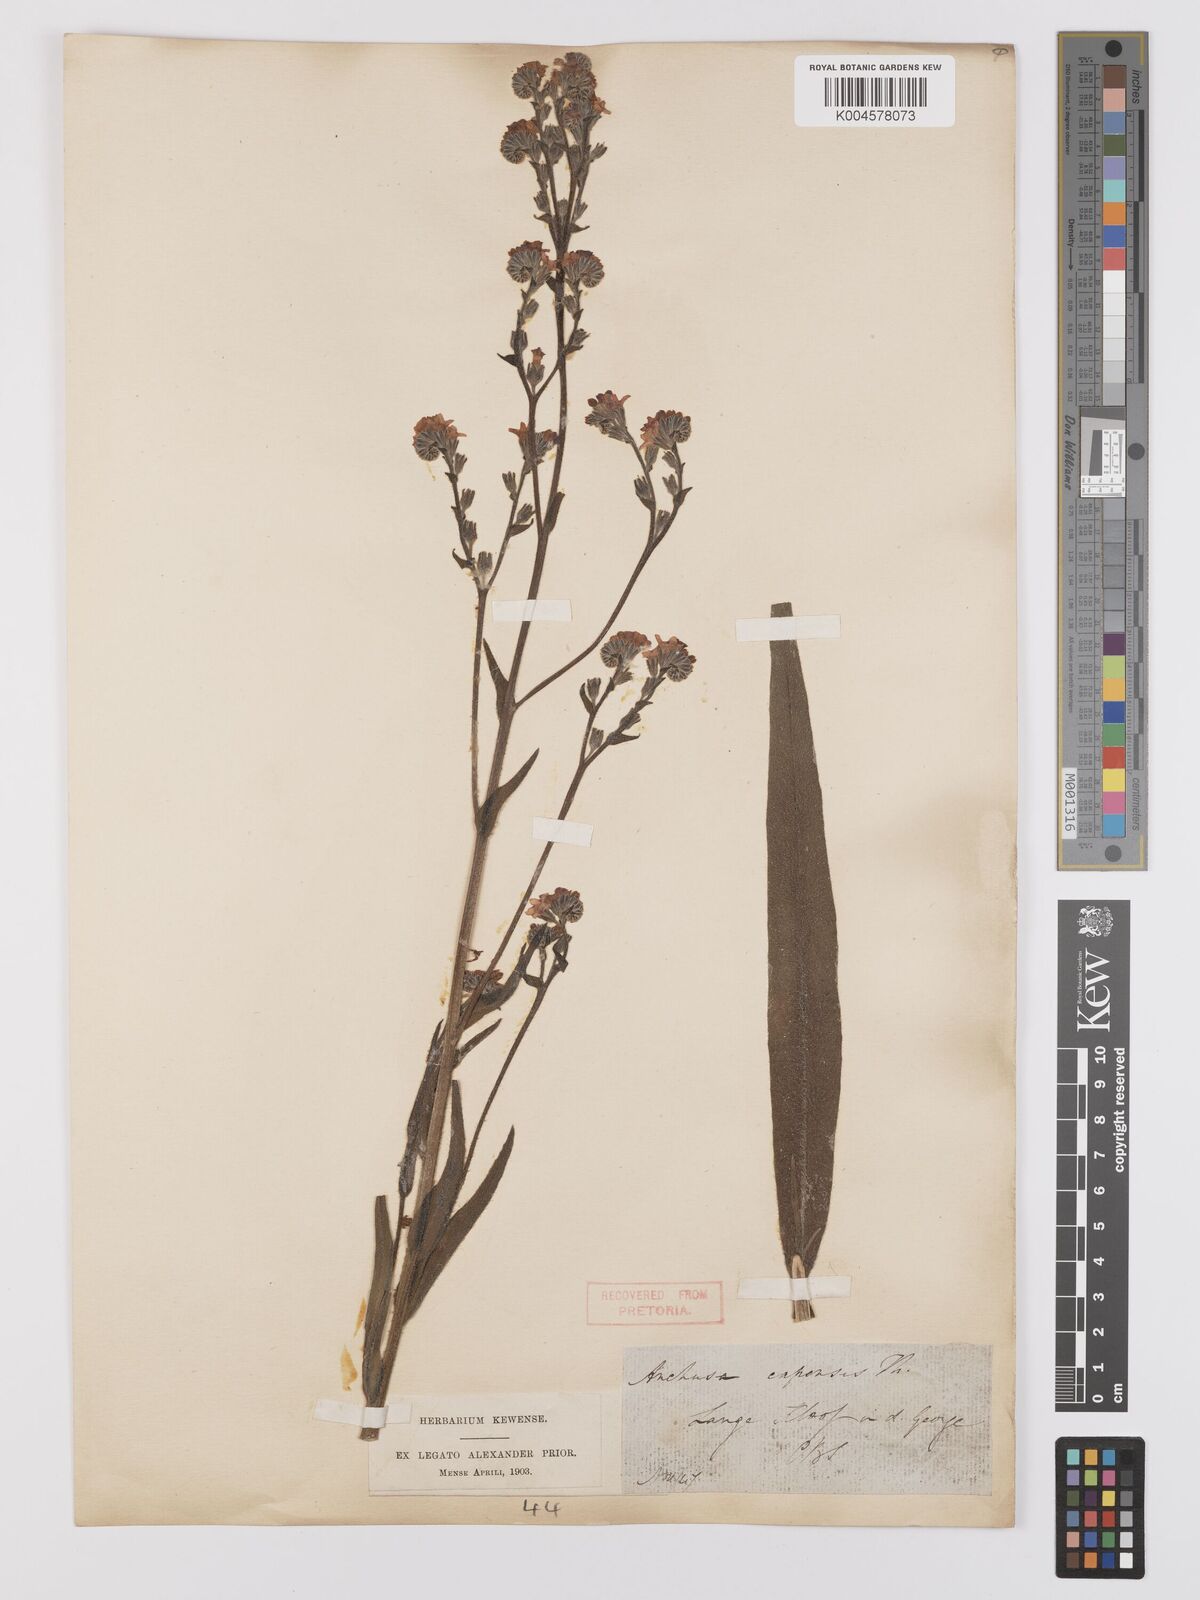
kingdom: Plantae
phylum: Tracheophyta
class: Magnoliopsida
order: Boraginales
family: Boraginaceae
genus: Anchusa
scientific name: Anchusa capensis
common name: Cape bugloss
